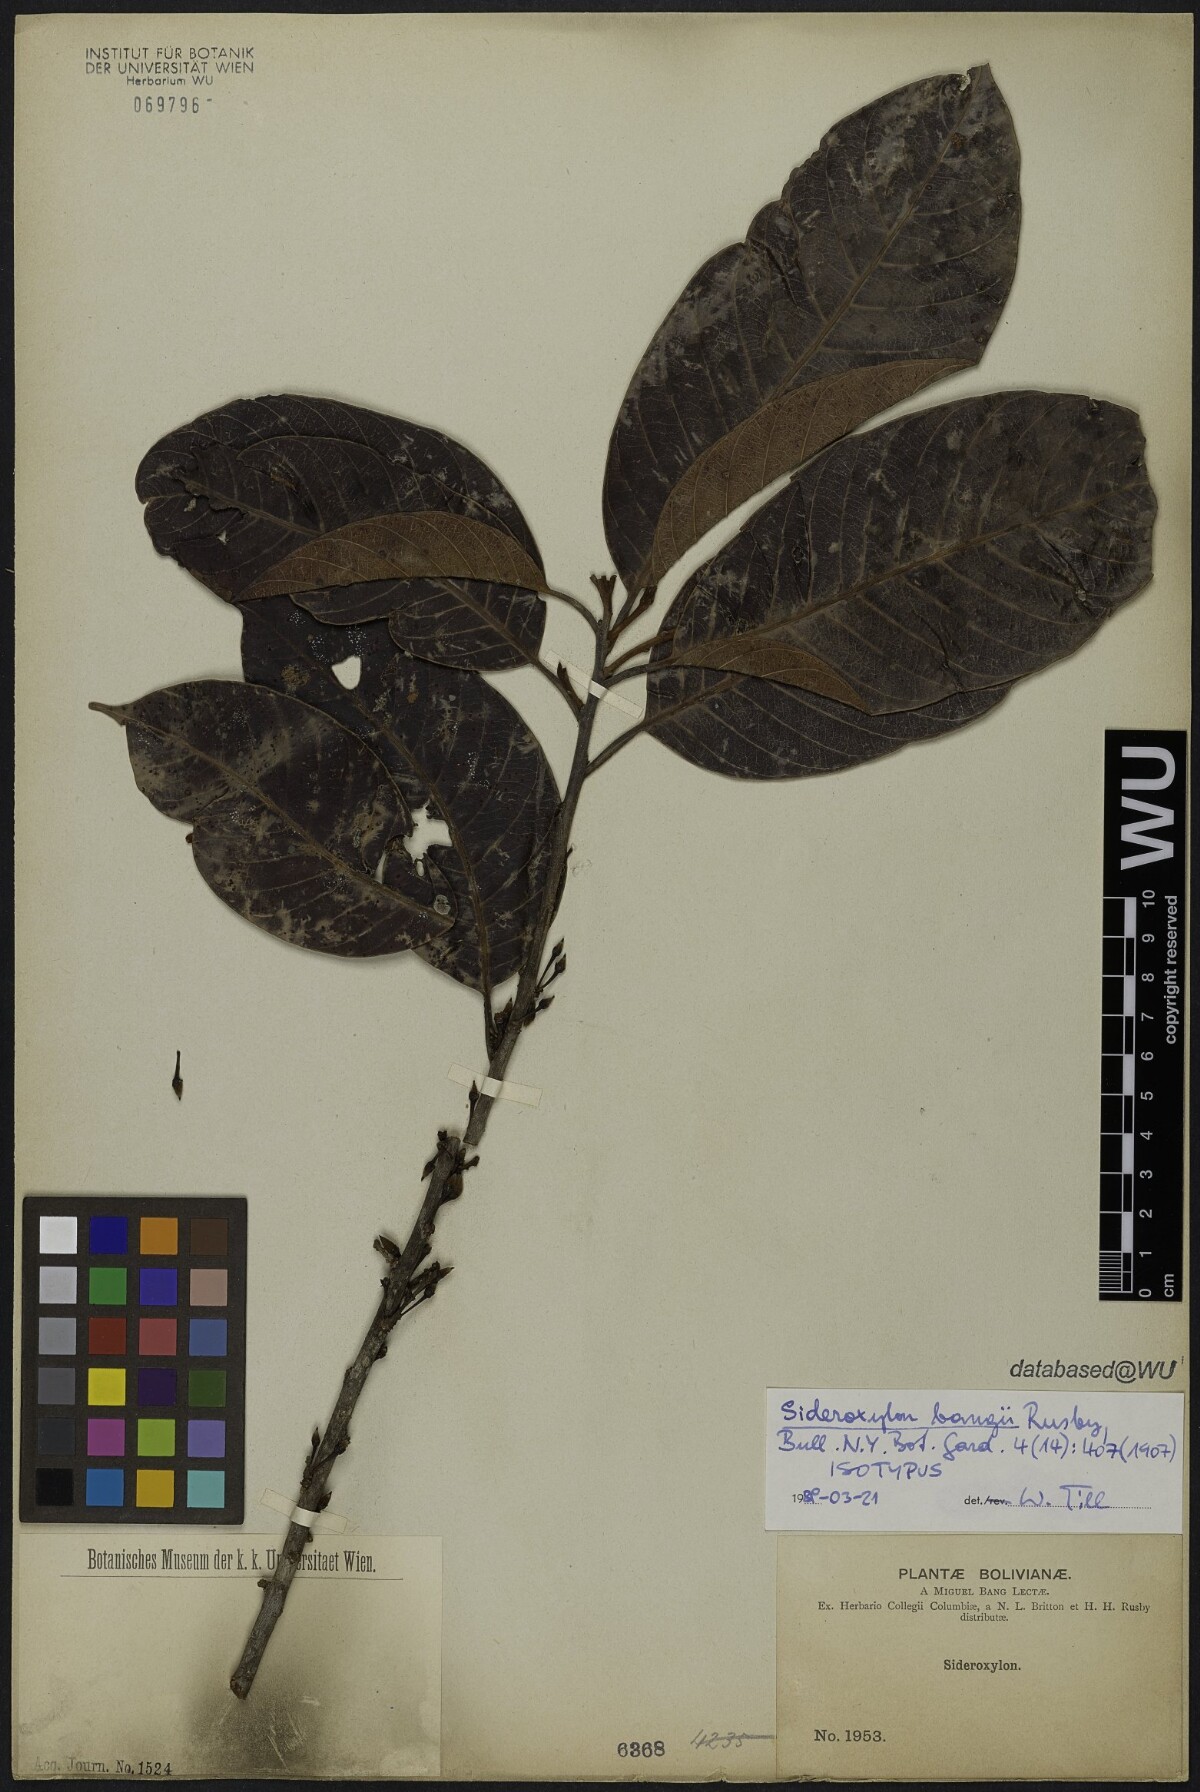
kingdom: Plantae
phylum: Tracheophyta
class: Magnoliopsida
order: Ericales
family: Sapotaceae
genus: Pouteria
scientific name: Pouteria bangii
